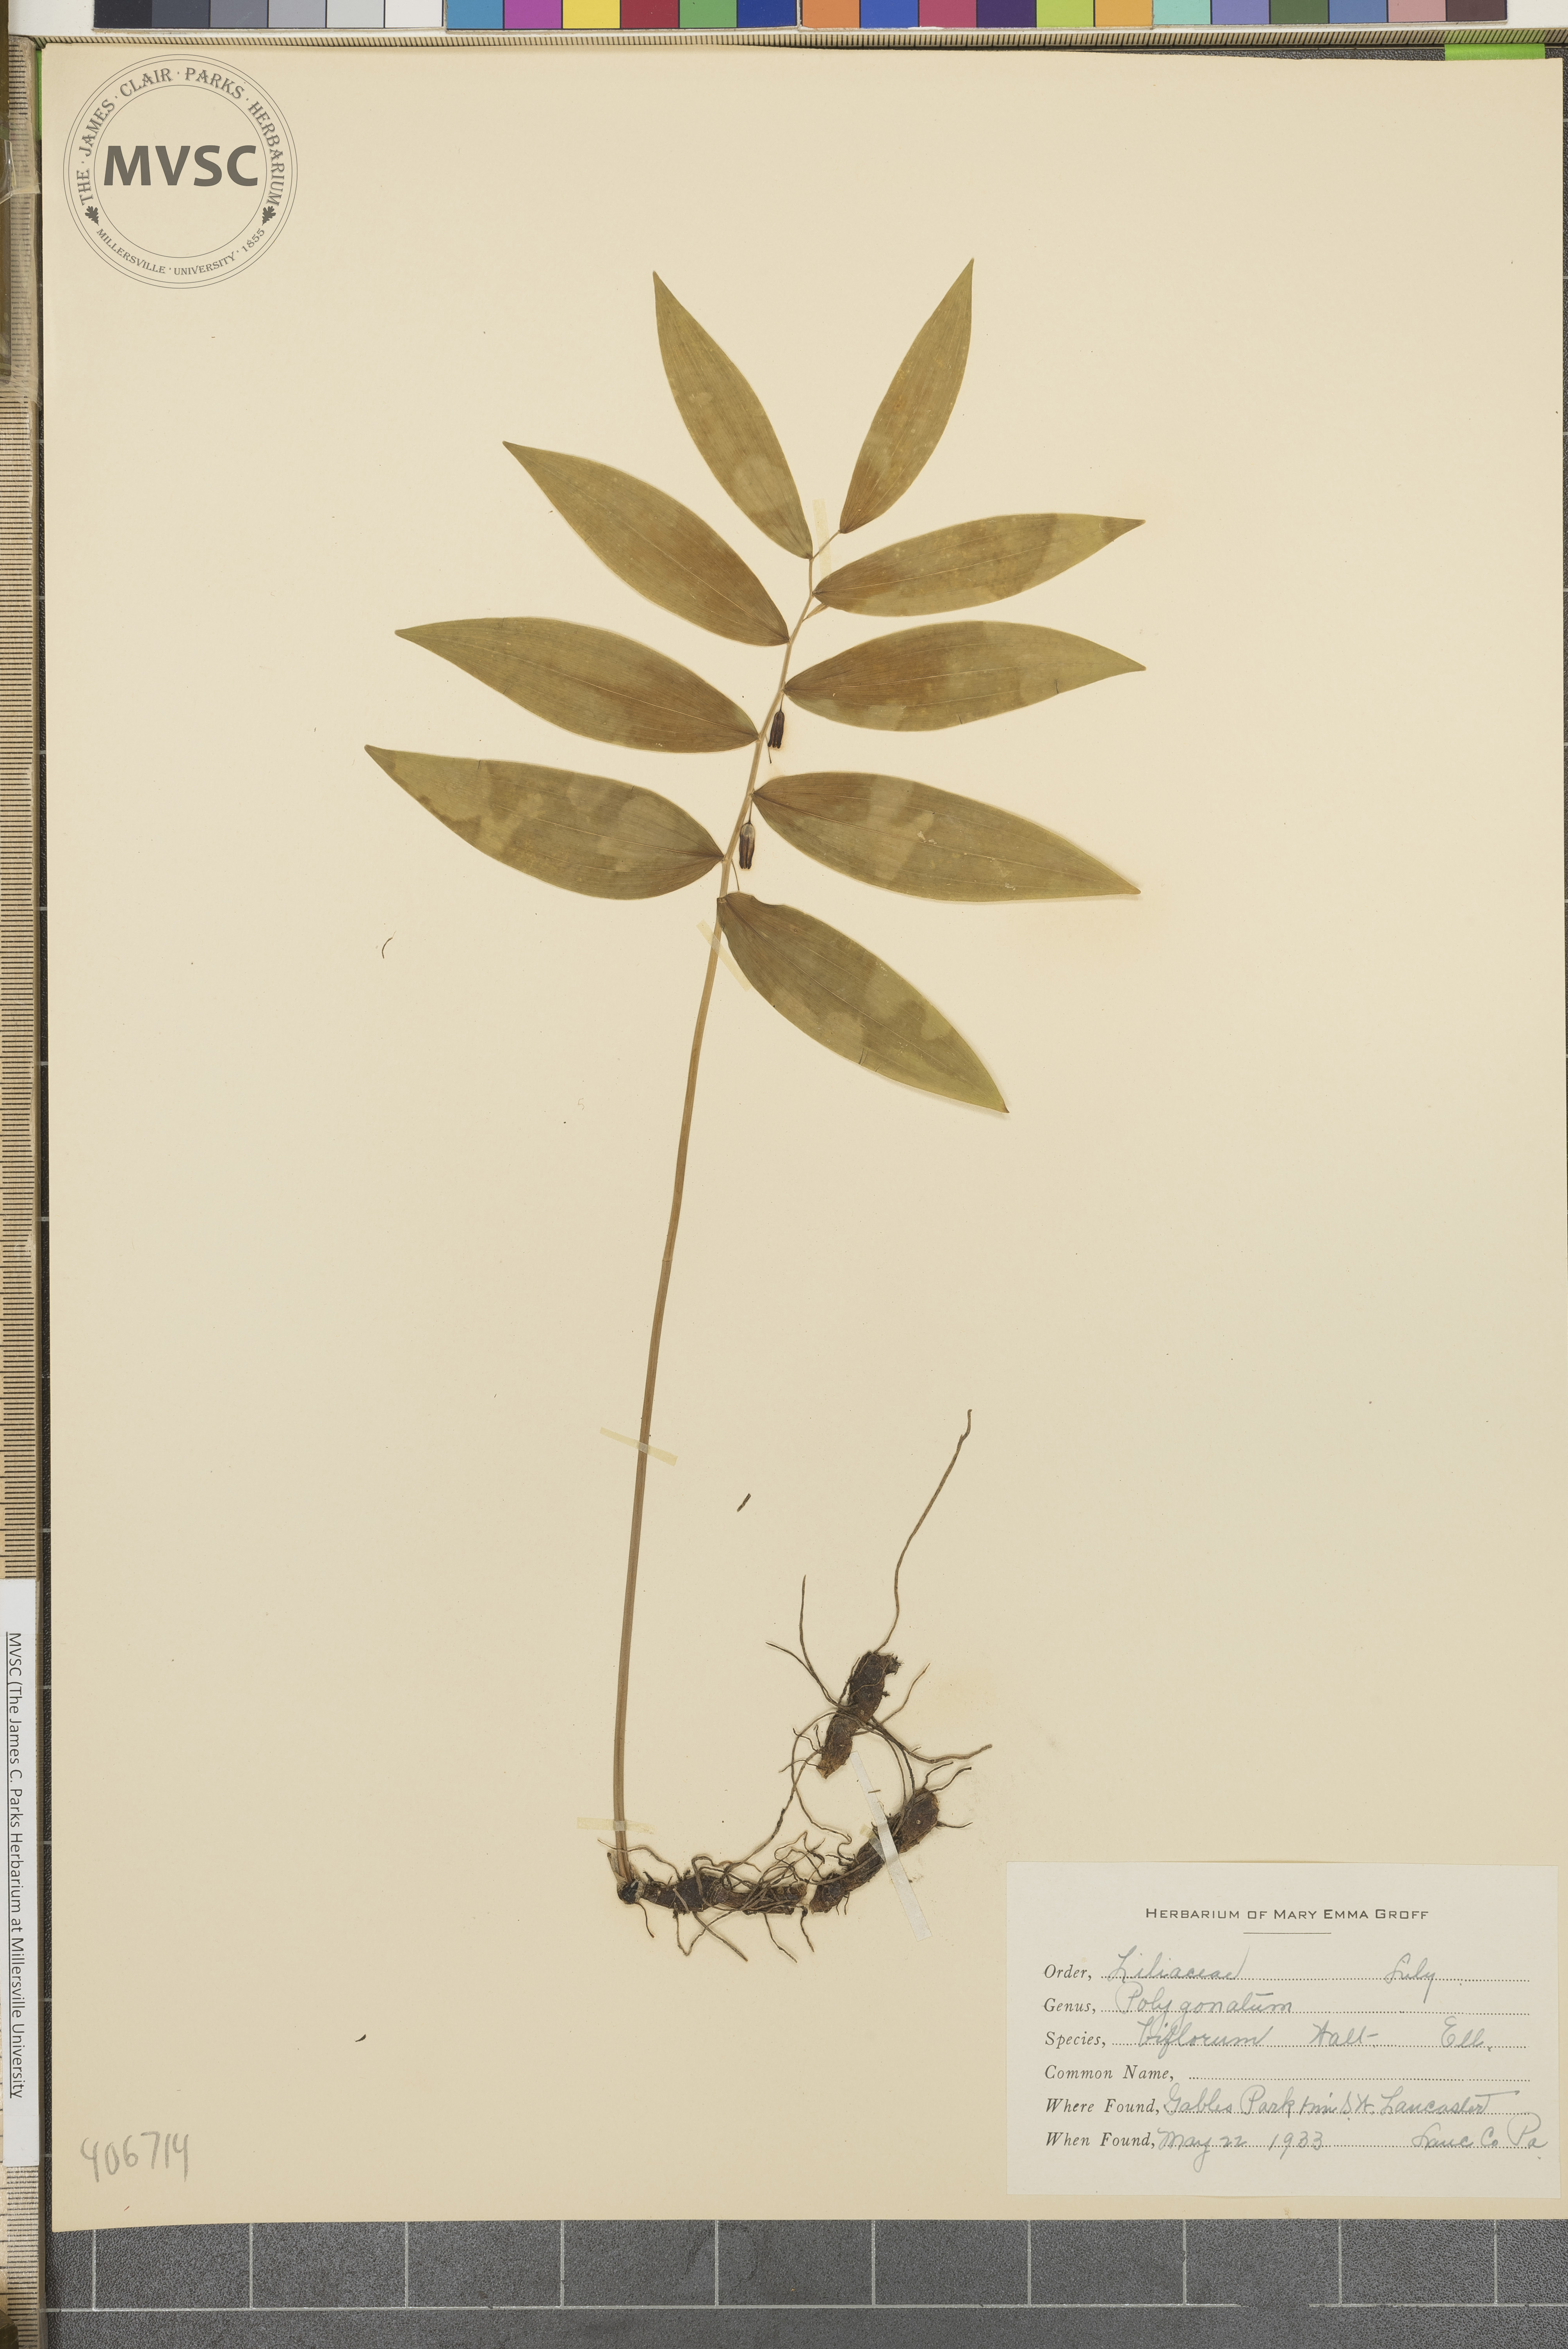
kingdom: Plantae
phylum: Tracheophyta
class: Liliopsida
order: Asparagales
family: Asparagaceae
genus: Polygonatum
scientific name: Polygonatum biflorum
